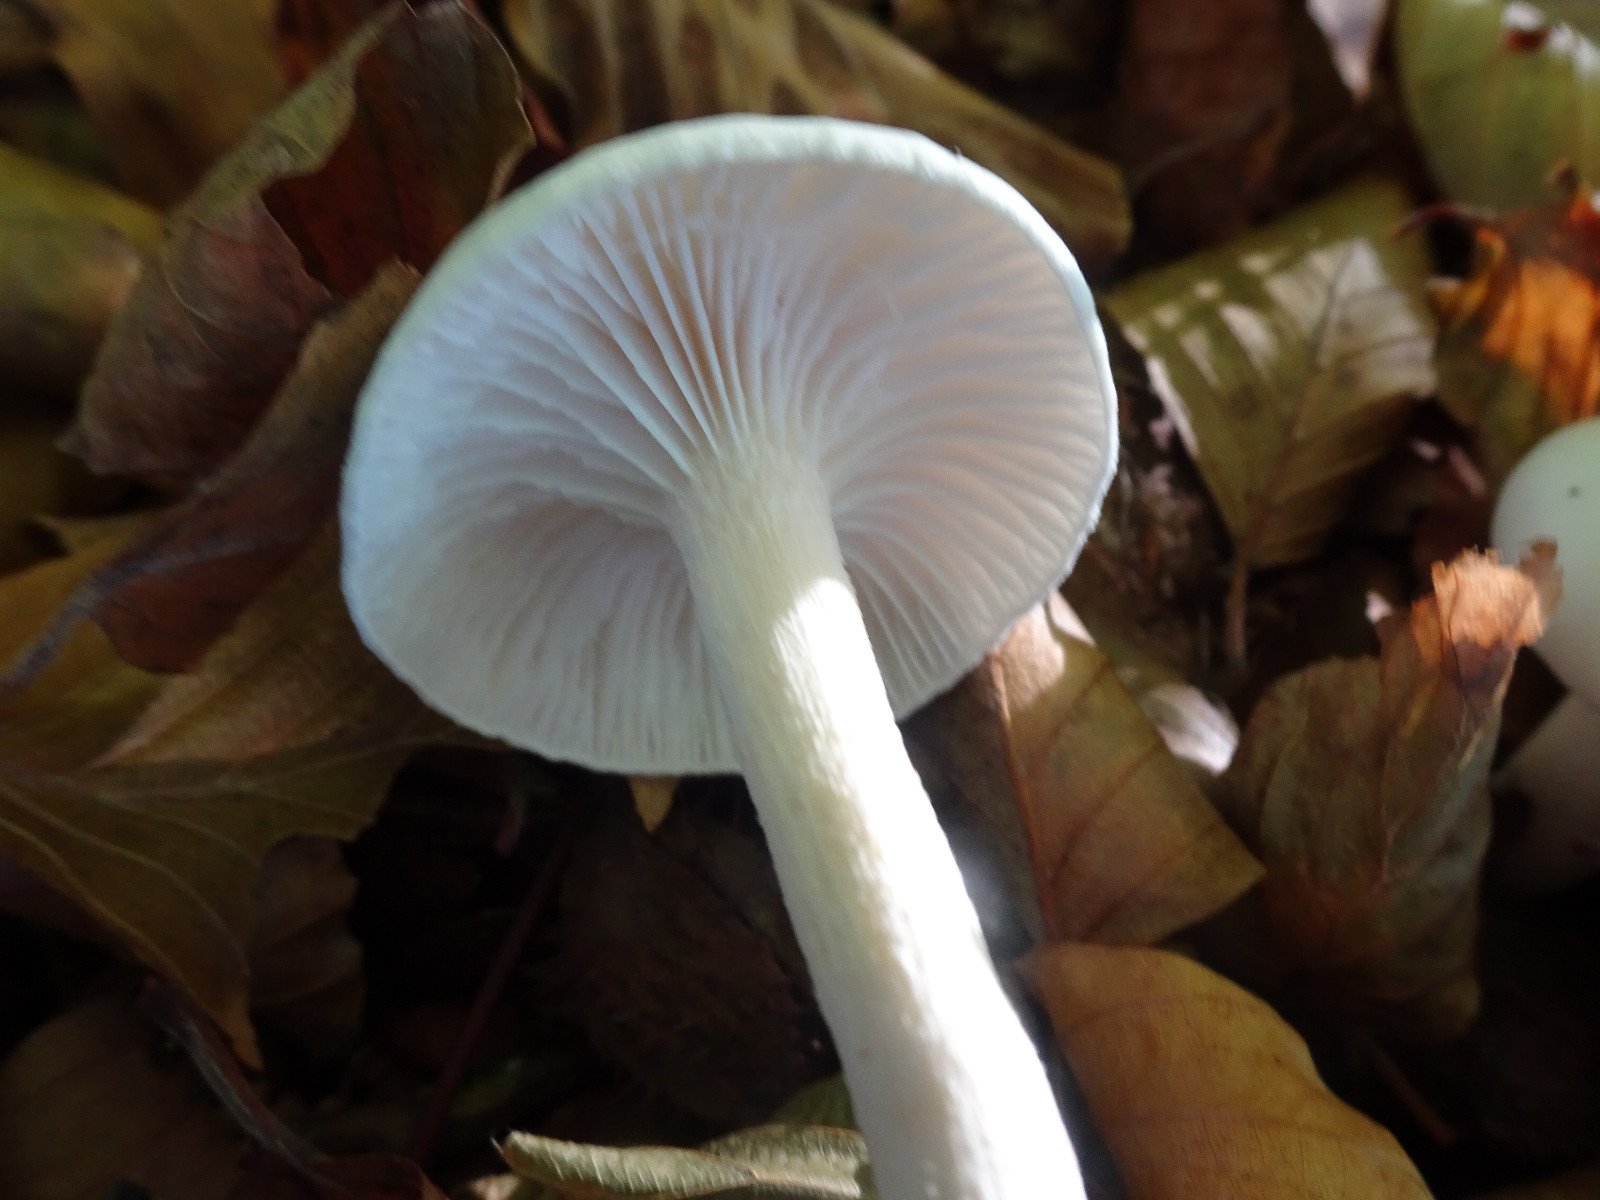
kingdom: Fungi
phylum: Basidiomycota
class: Agaricomycetes
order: Agaricales
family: Hygrophoraceae
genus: Hygrophorus
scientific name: Hygrophorus
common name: sneglehat
